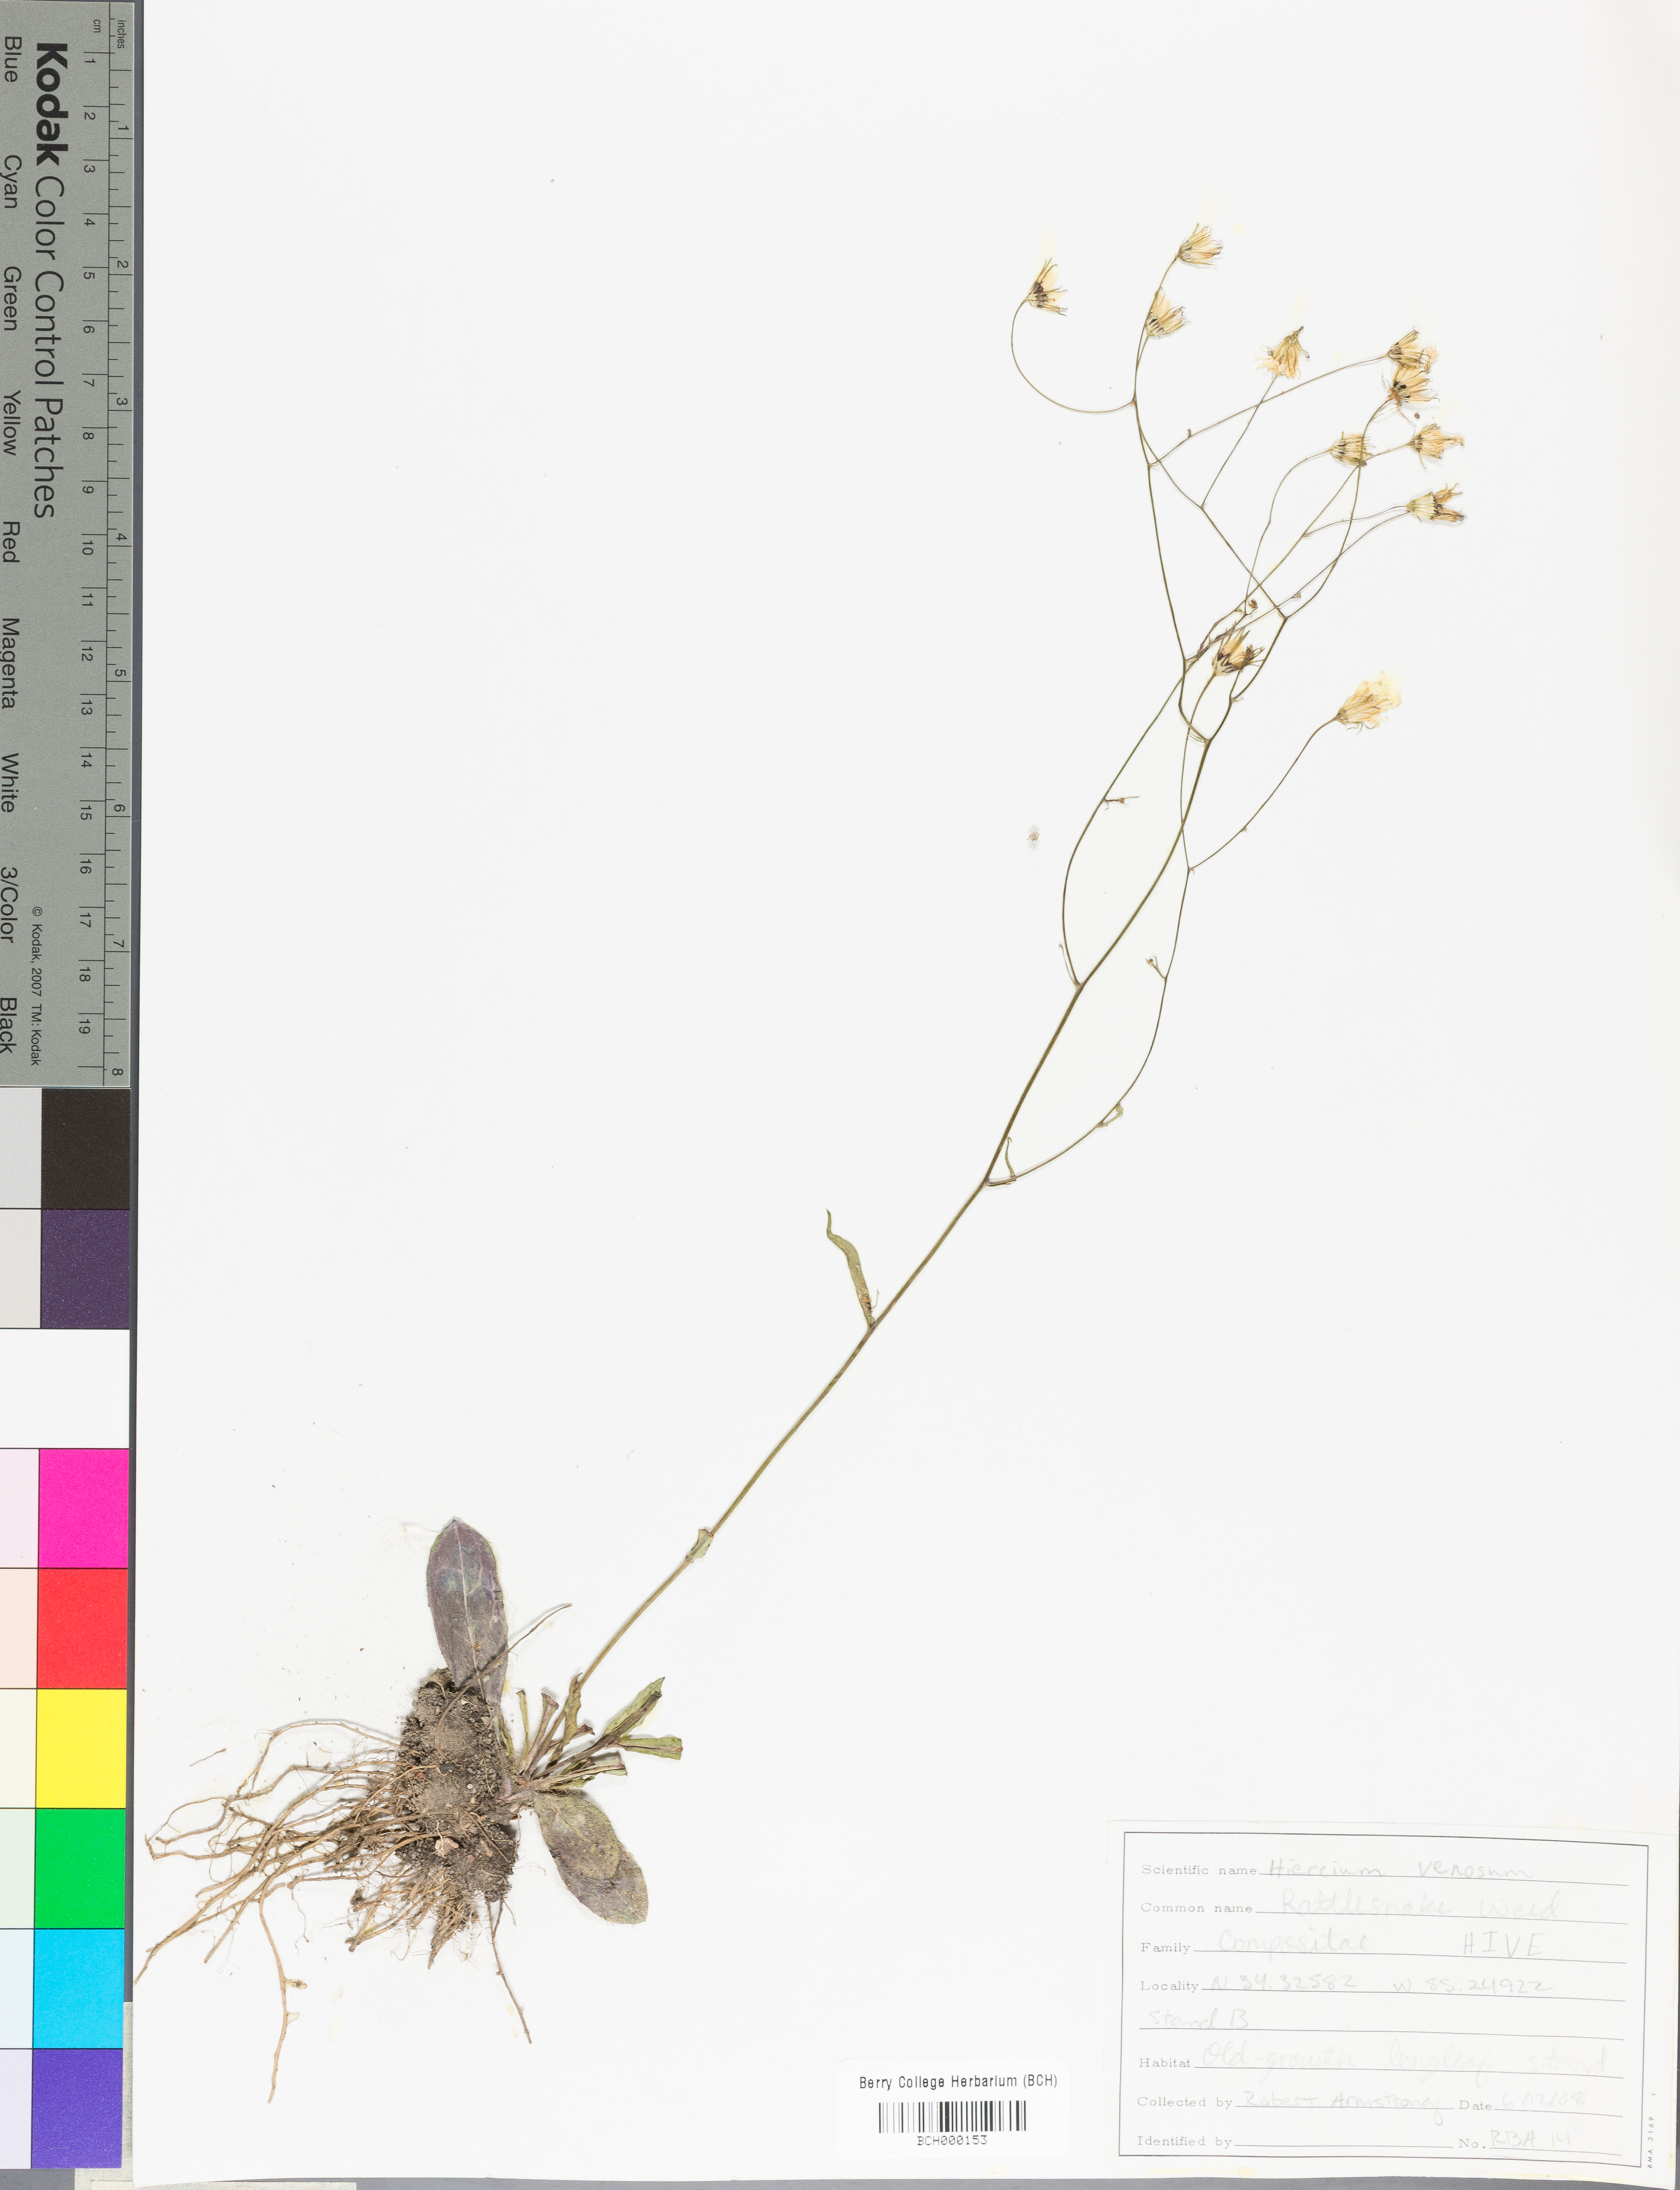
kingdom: Plantae
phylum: Tracheophyta
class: Magnoliopsida
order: Asterales
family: Asteraceae
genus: Hieracium
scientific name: Hieracium venosum
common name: Rattlesnake hawkweed
